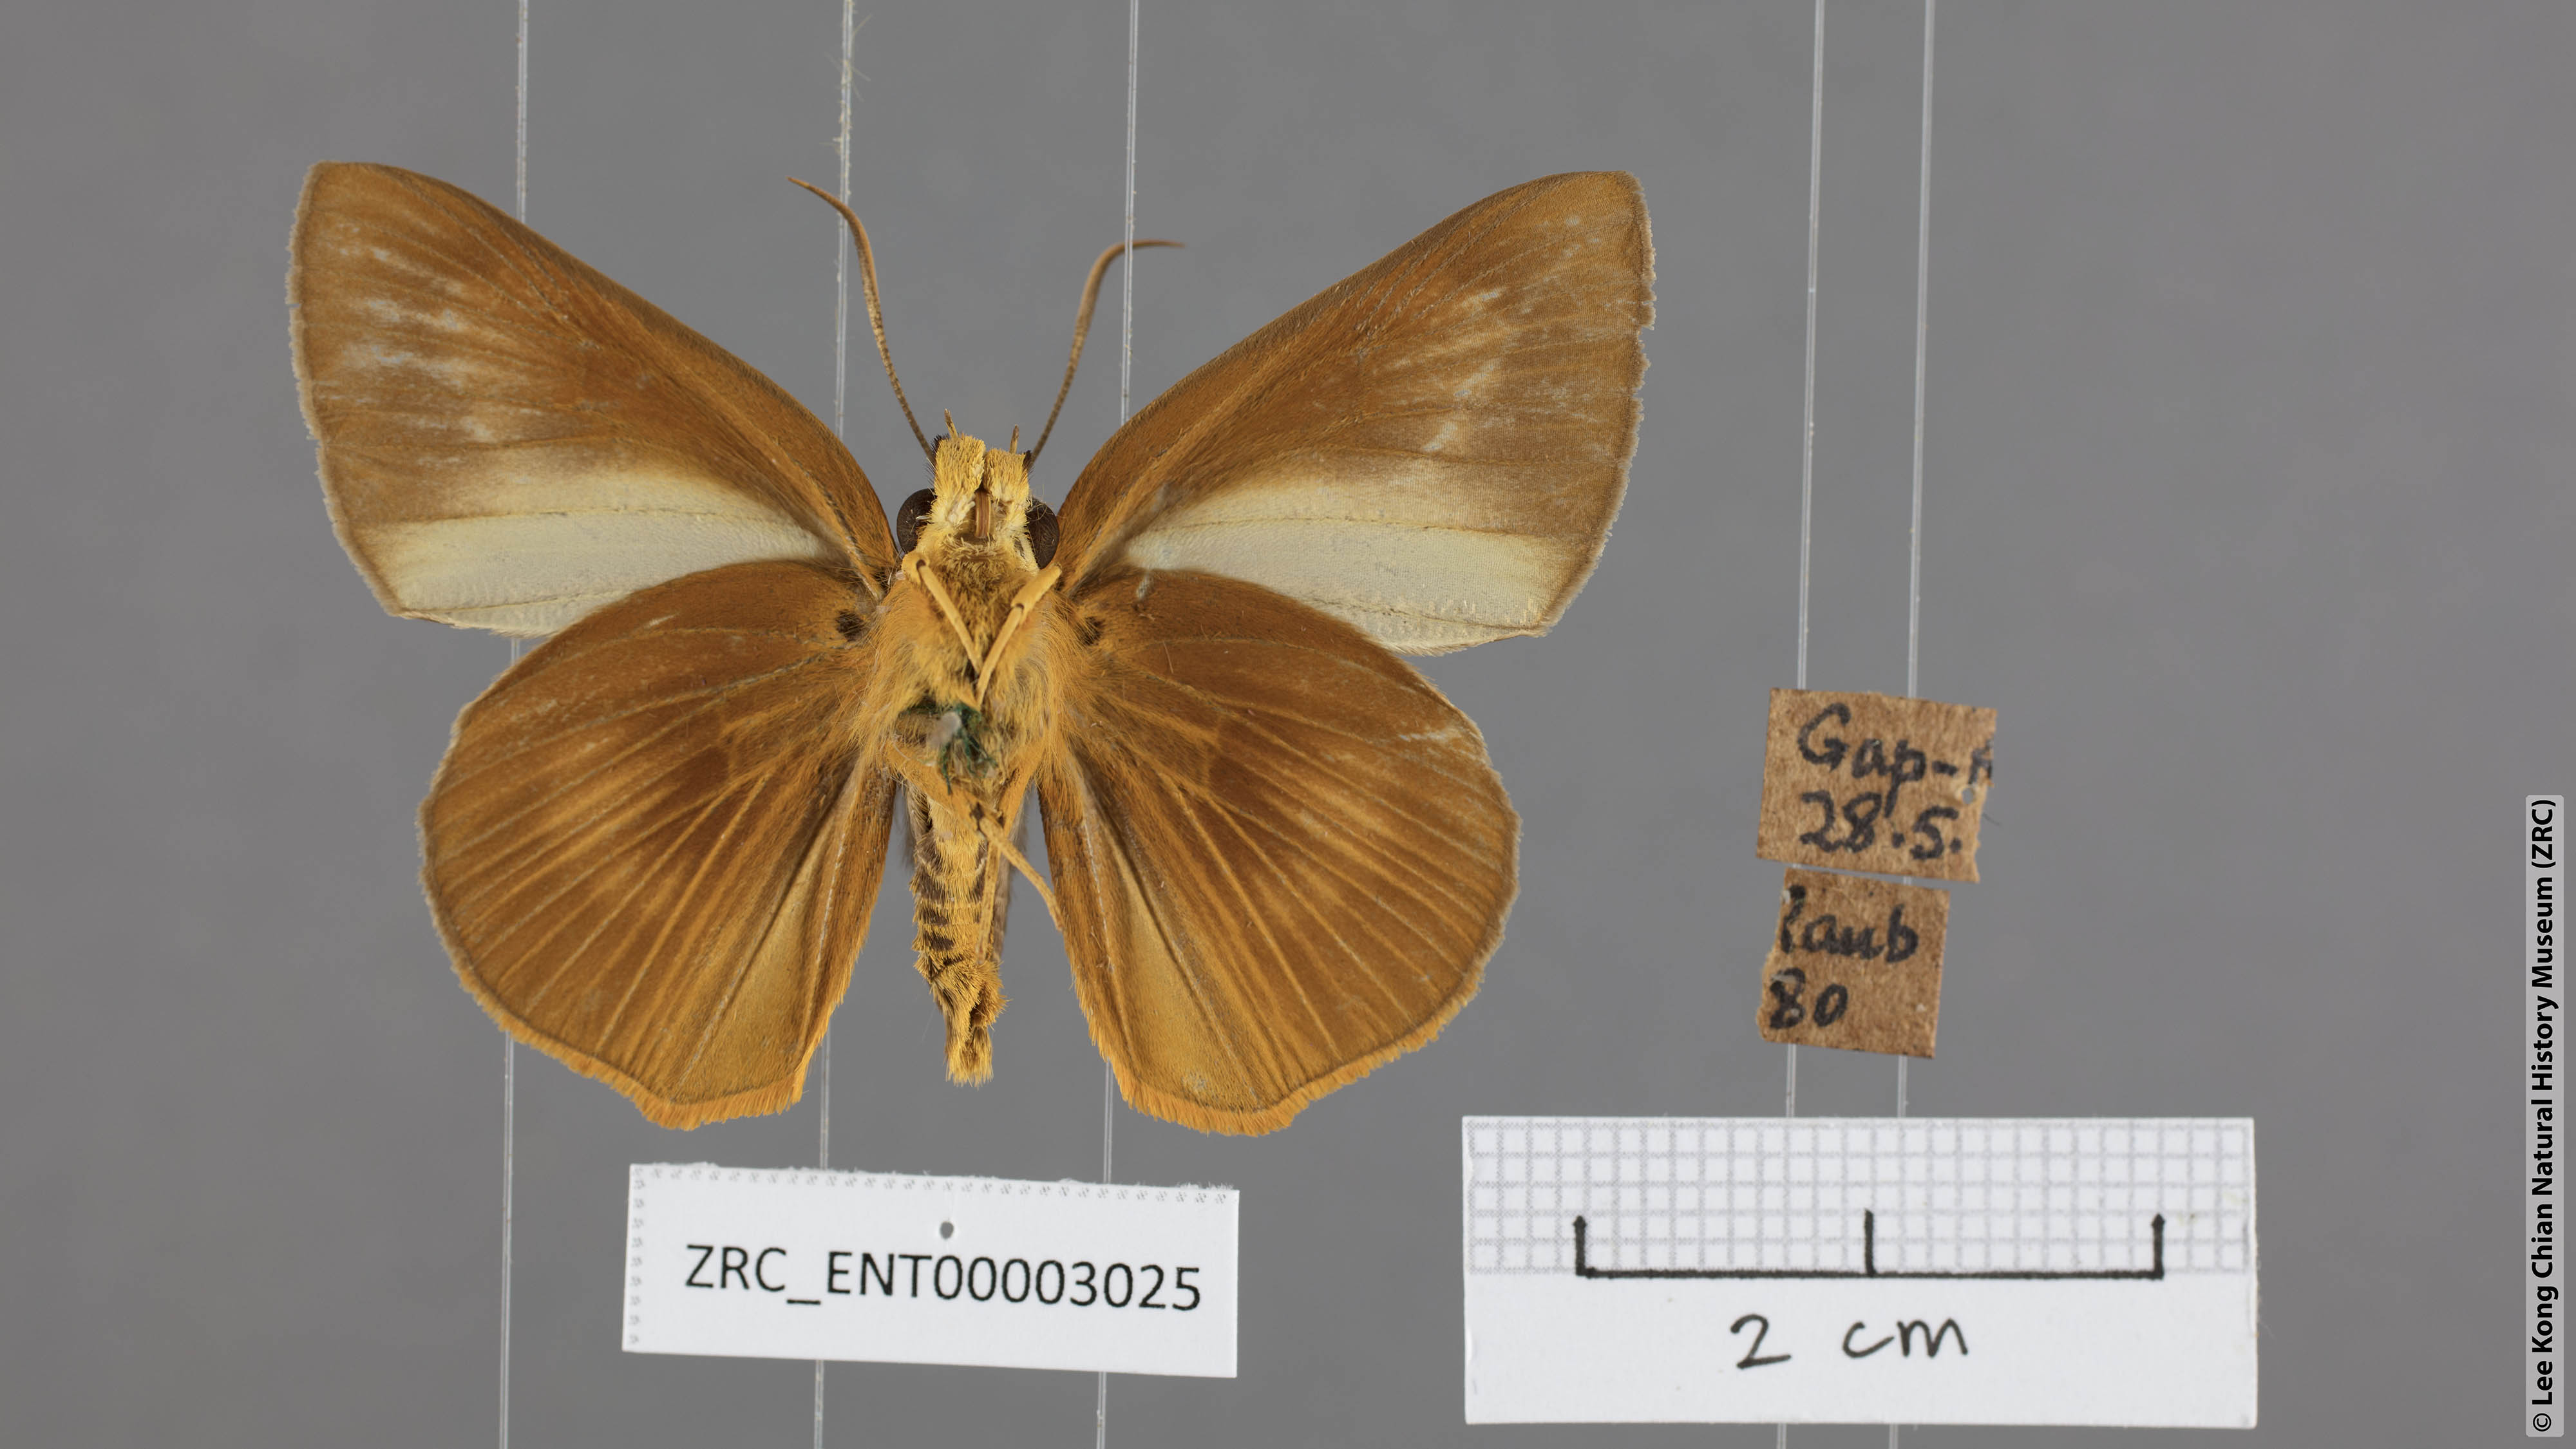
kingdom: Animalia
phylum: Arthropoda
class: Insecta
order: Lepidoptera
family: Hesperiidae
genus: Bibasis
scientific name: Bibasis Burara harisa
